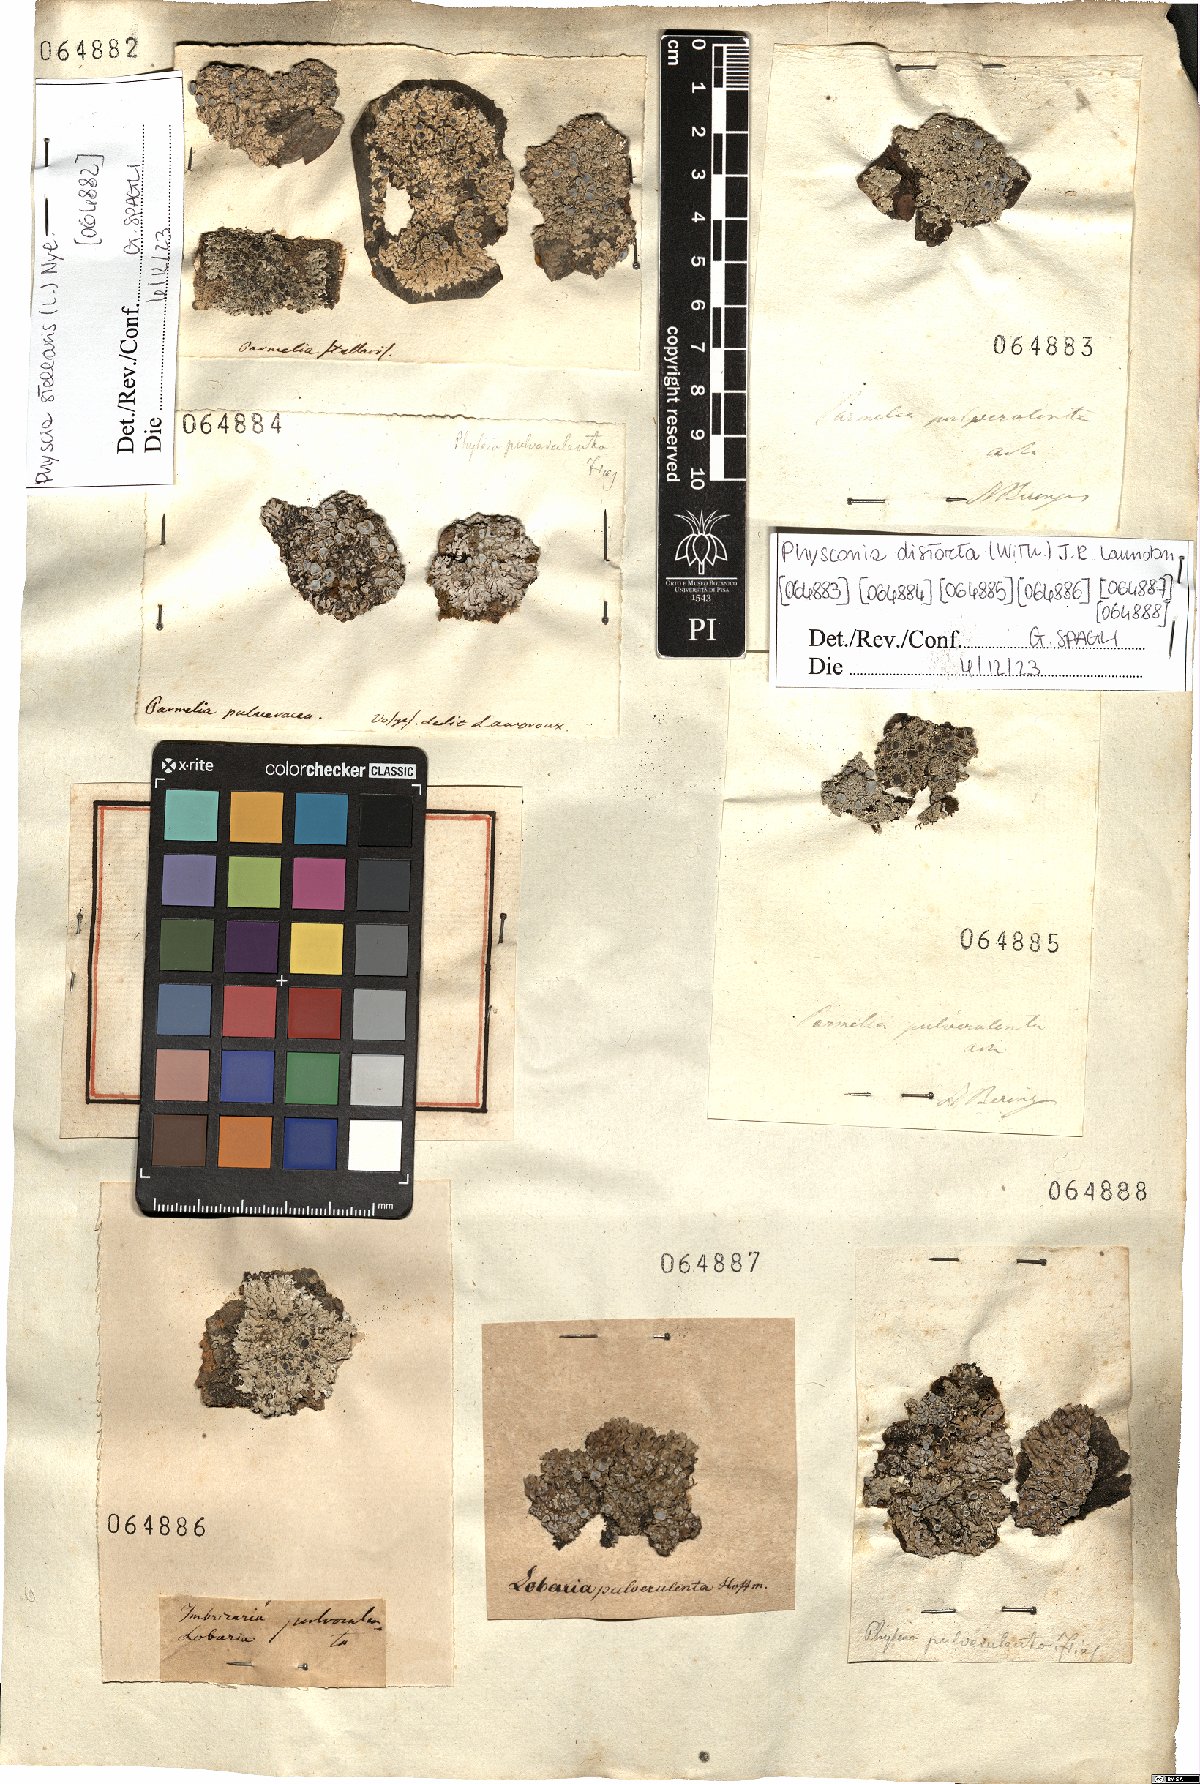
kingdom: Fungi
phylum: Ascomycota
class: Lecanoromycetes
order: Caliciales
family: Physciaceae
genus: Physconia
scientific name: Physconia distorta
